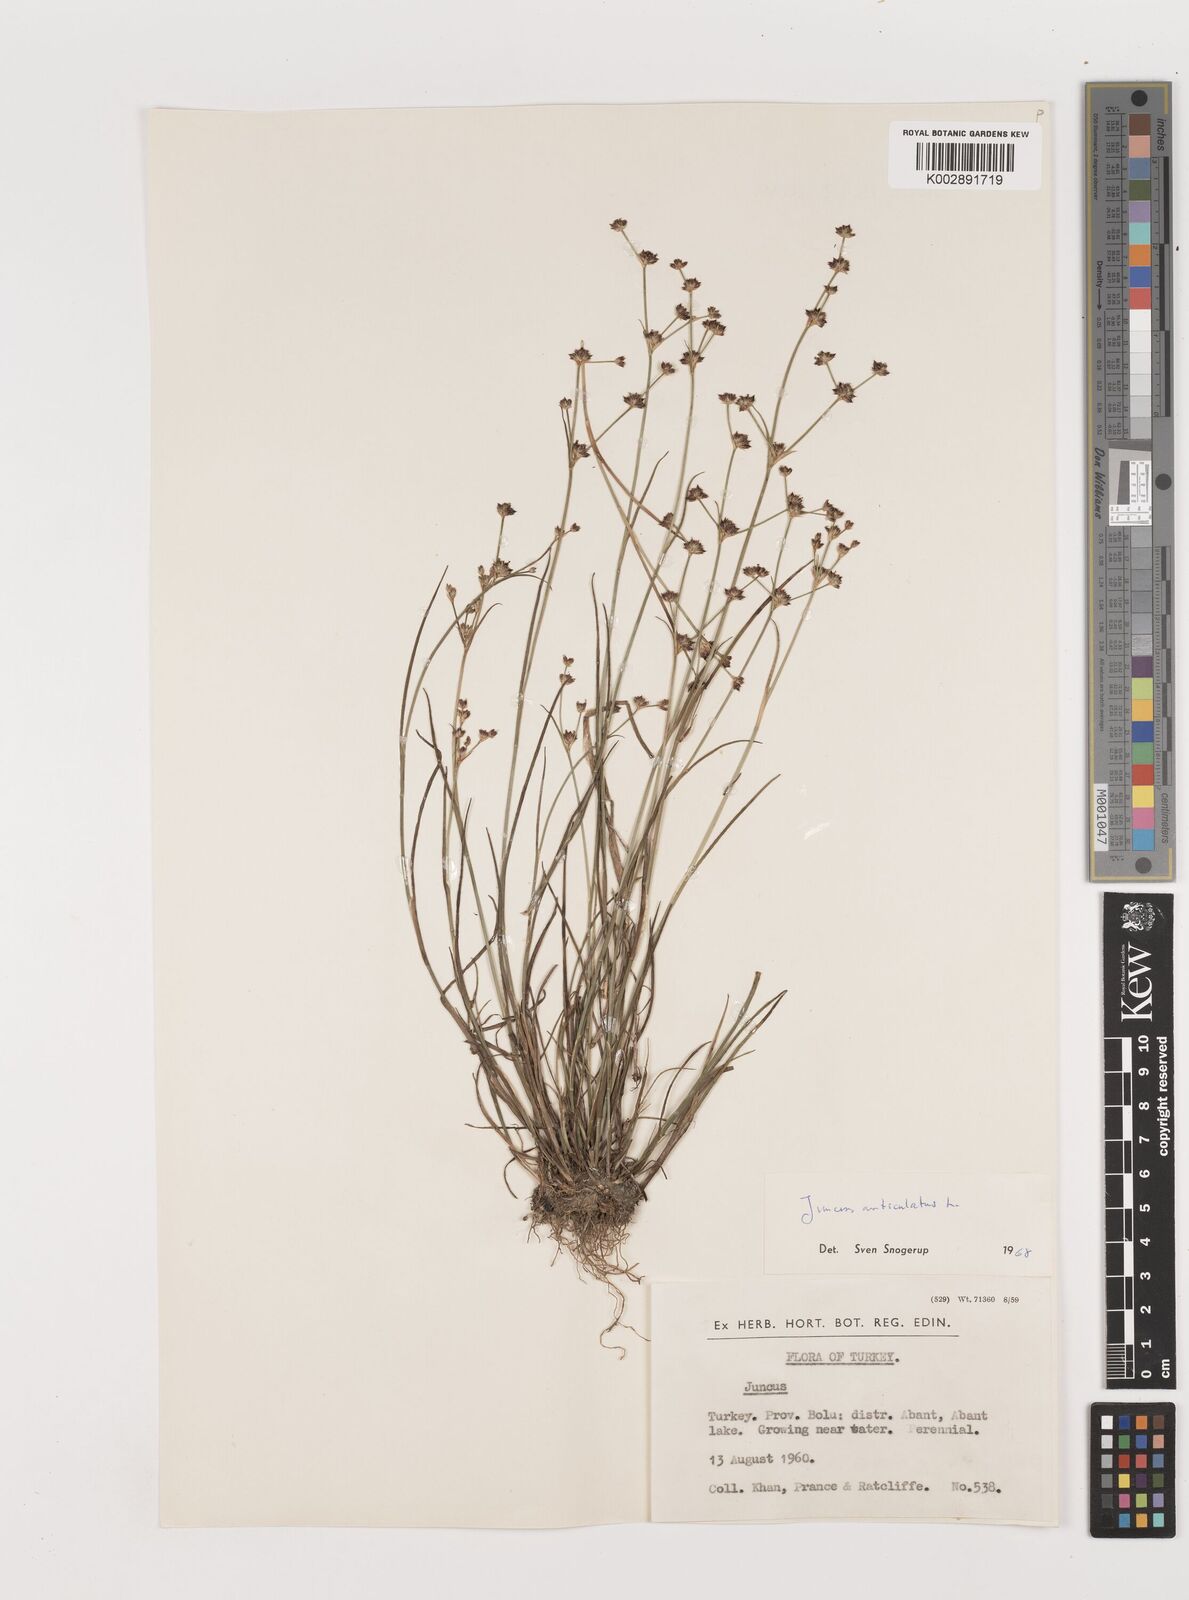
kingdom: Plantae
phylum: Tracheophyta
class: Liliopsida
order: Poales
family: Juncaceae
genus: Juncus
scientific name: Juncus articulatus
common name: Jointed rush
